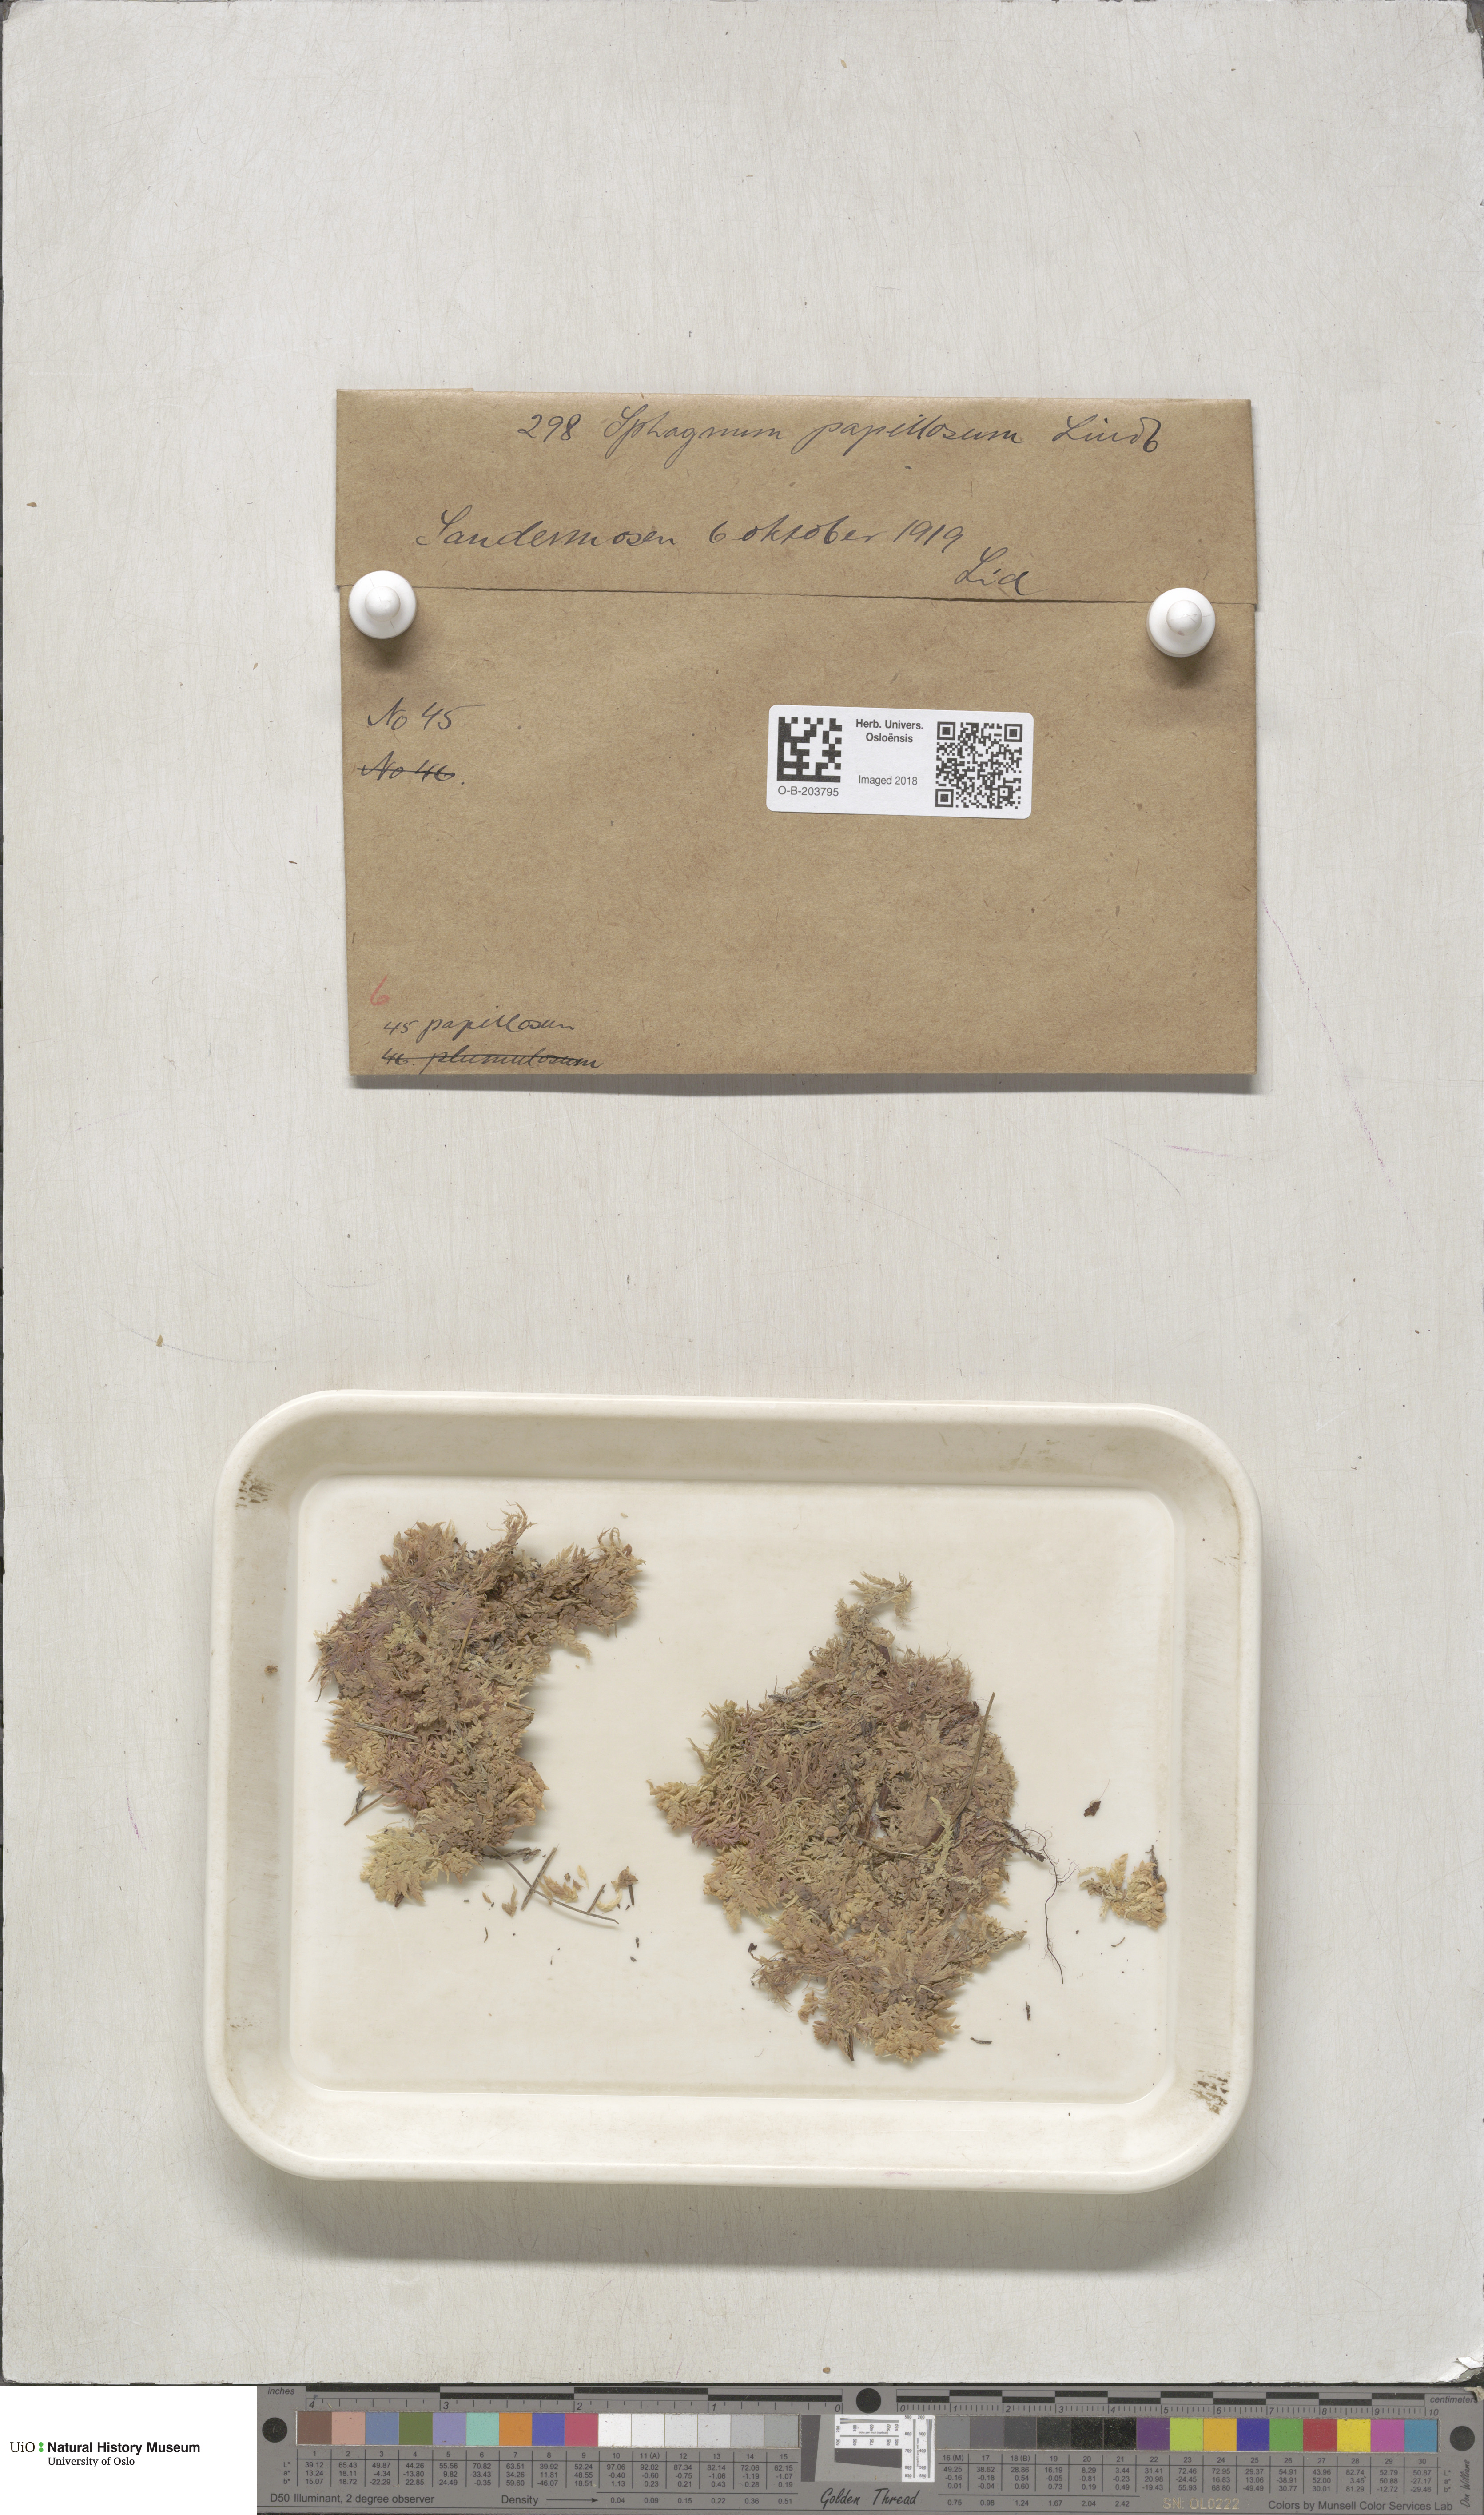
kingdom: Plantae
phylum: Bryophyta
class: Sphagnopsida
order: Sphagnales
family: Sphagnaceae
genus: Sphagnum
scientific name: Sphagnum papillosum
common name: Papillose peat moss
